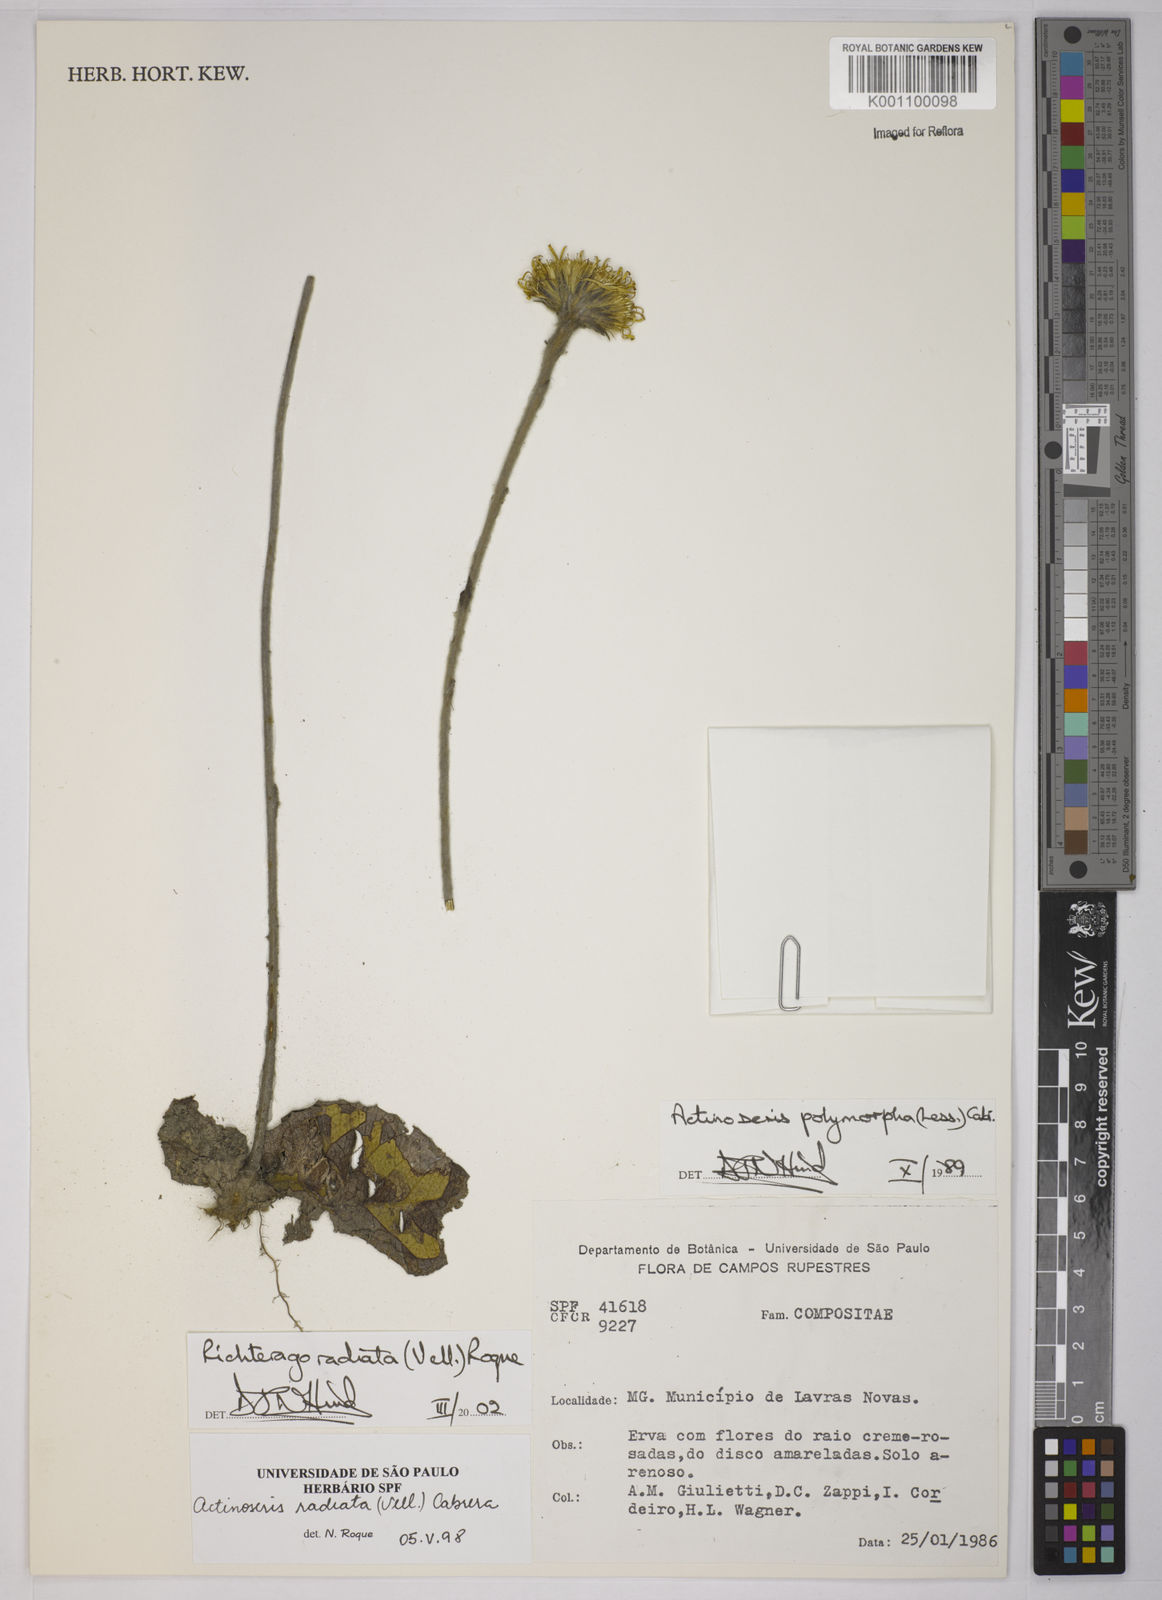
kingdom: Plantae
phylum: Tracheophyta
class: Magnoliopsida
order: Asterales
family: Asteraceae
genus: Richterago
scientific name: Richterago radiata
